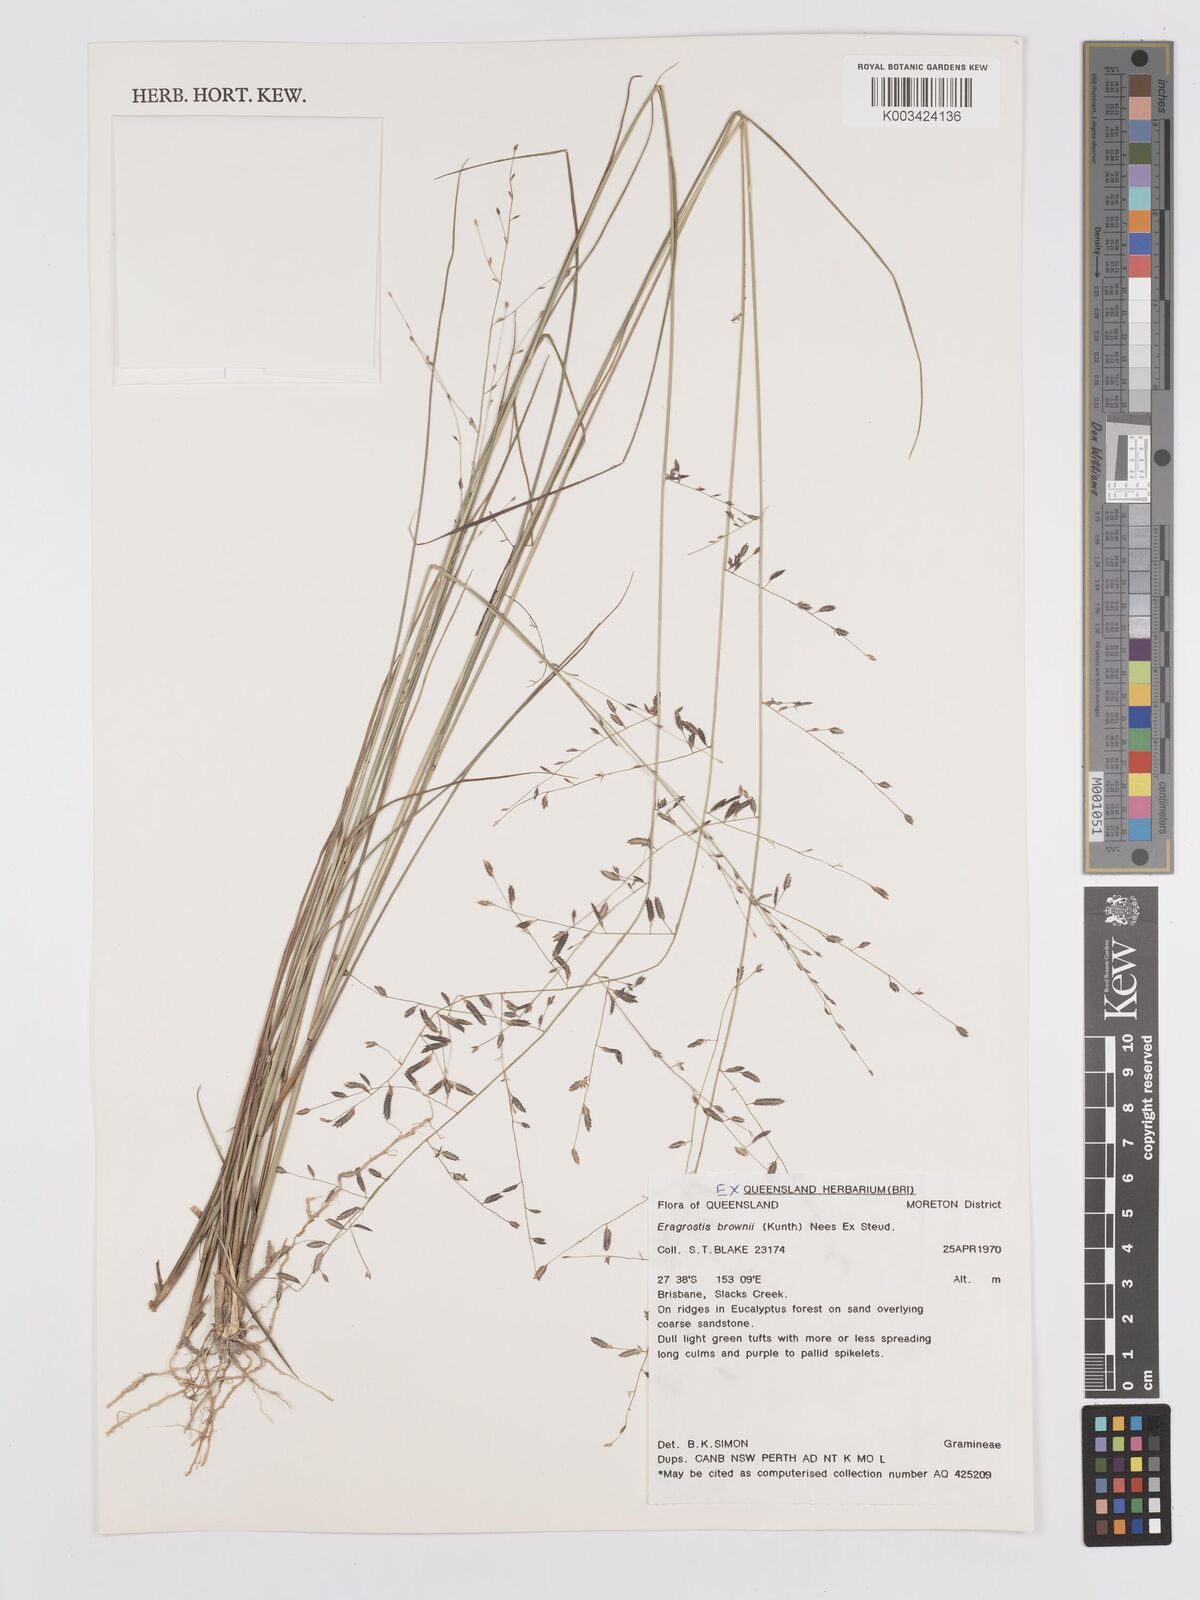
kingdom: Plantae
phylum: Tracheophyta
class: Liliopsida
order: Poales
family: Poaceae
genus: Eragrostis
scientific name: Eragrostis brownii
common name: Lovegrass
